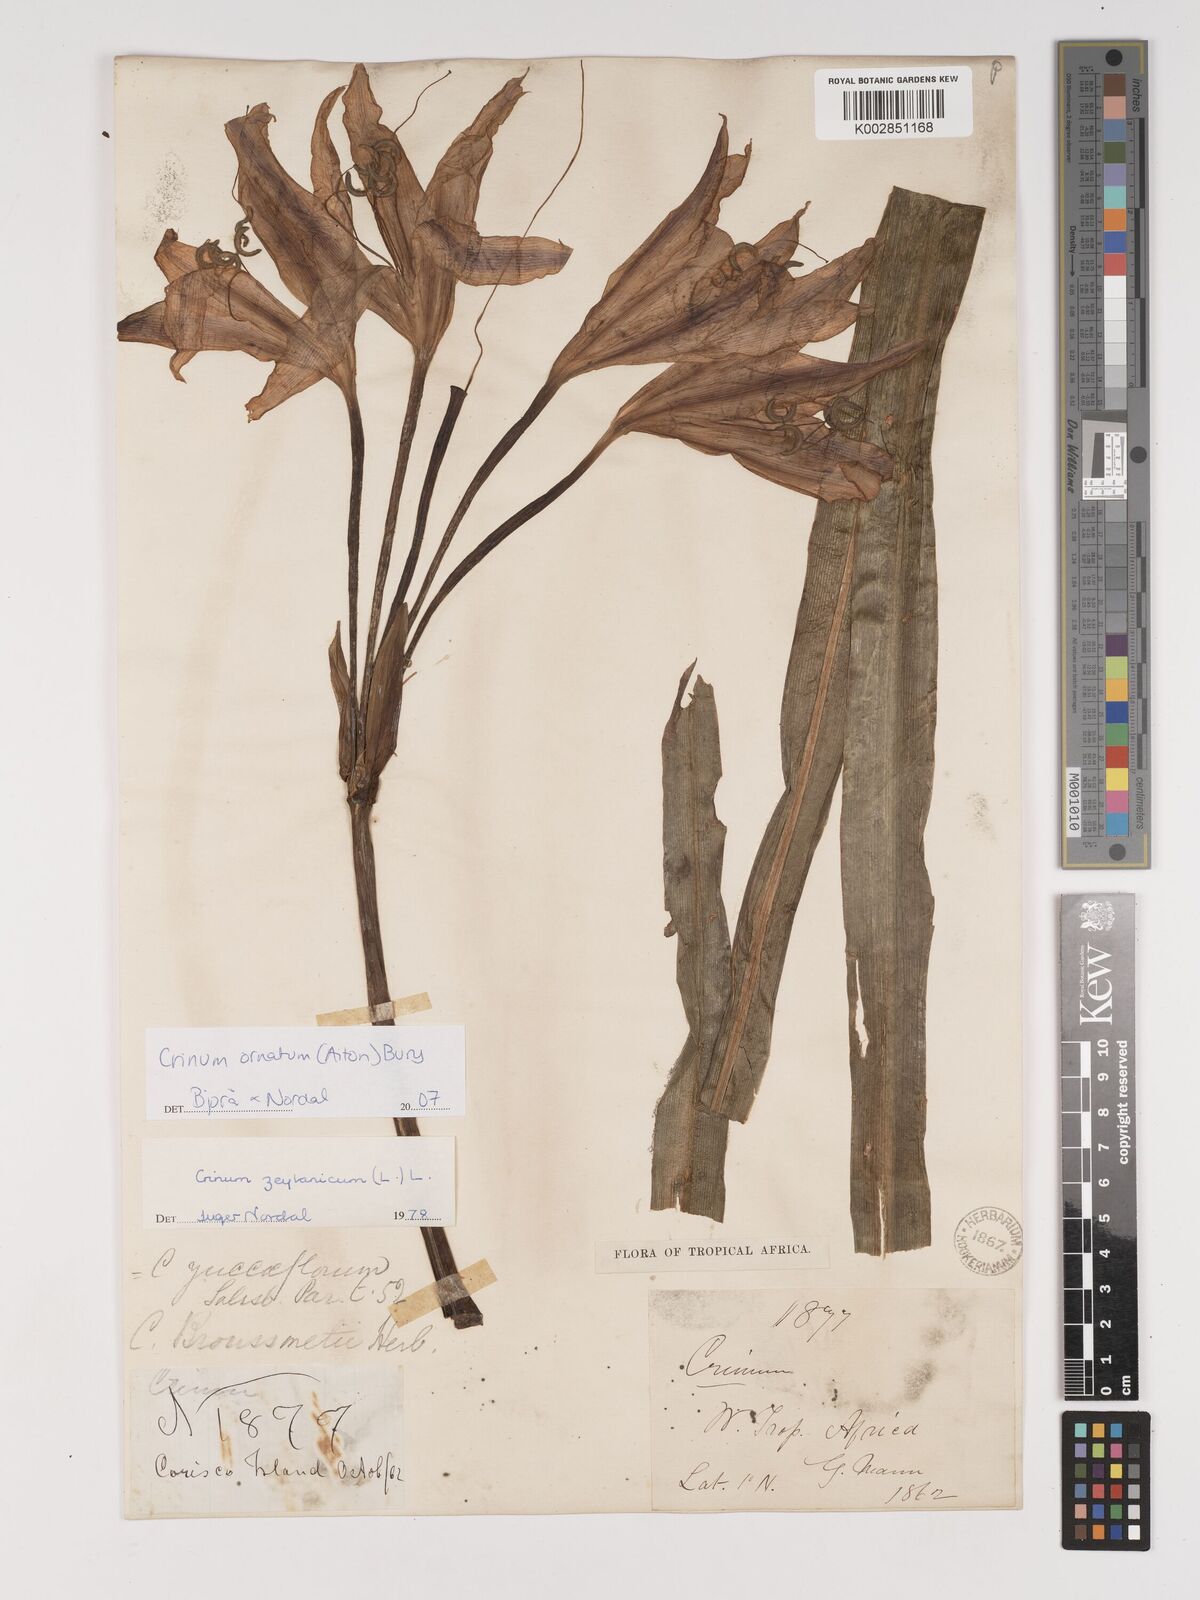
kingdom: Plantae
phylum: Tracheophyta
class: Liliopsida
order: Asparagales
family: Amaryllidaceae
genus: Crinum
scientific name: Crinum ornatum
